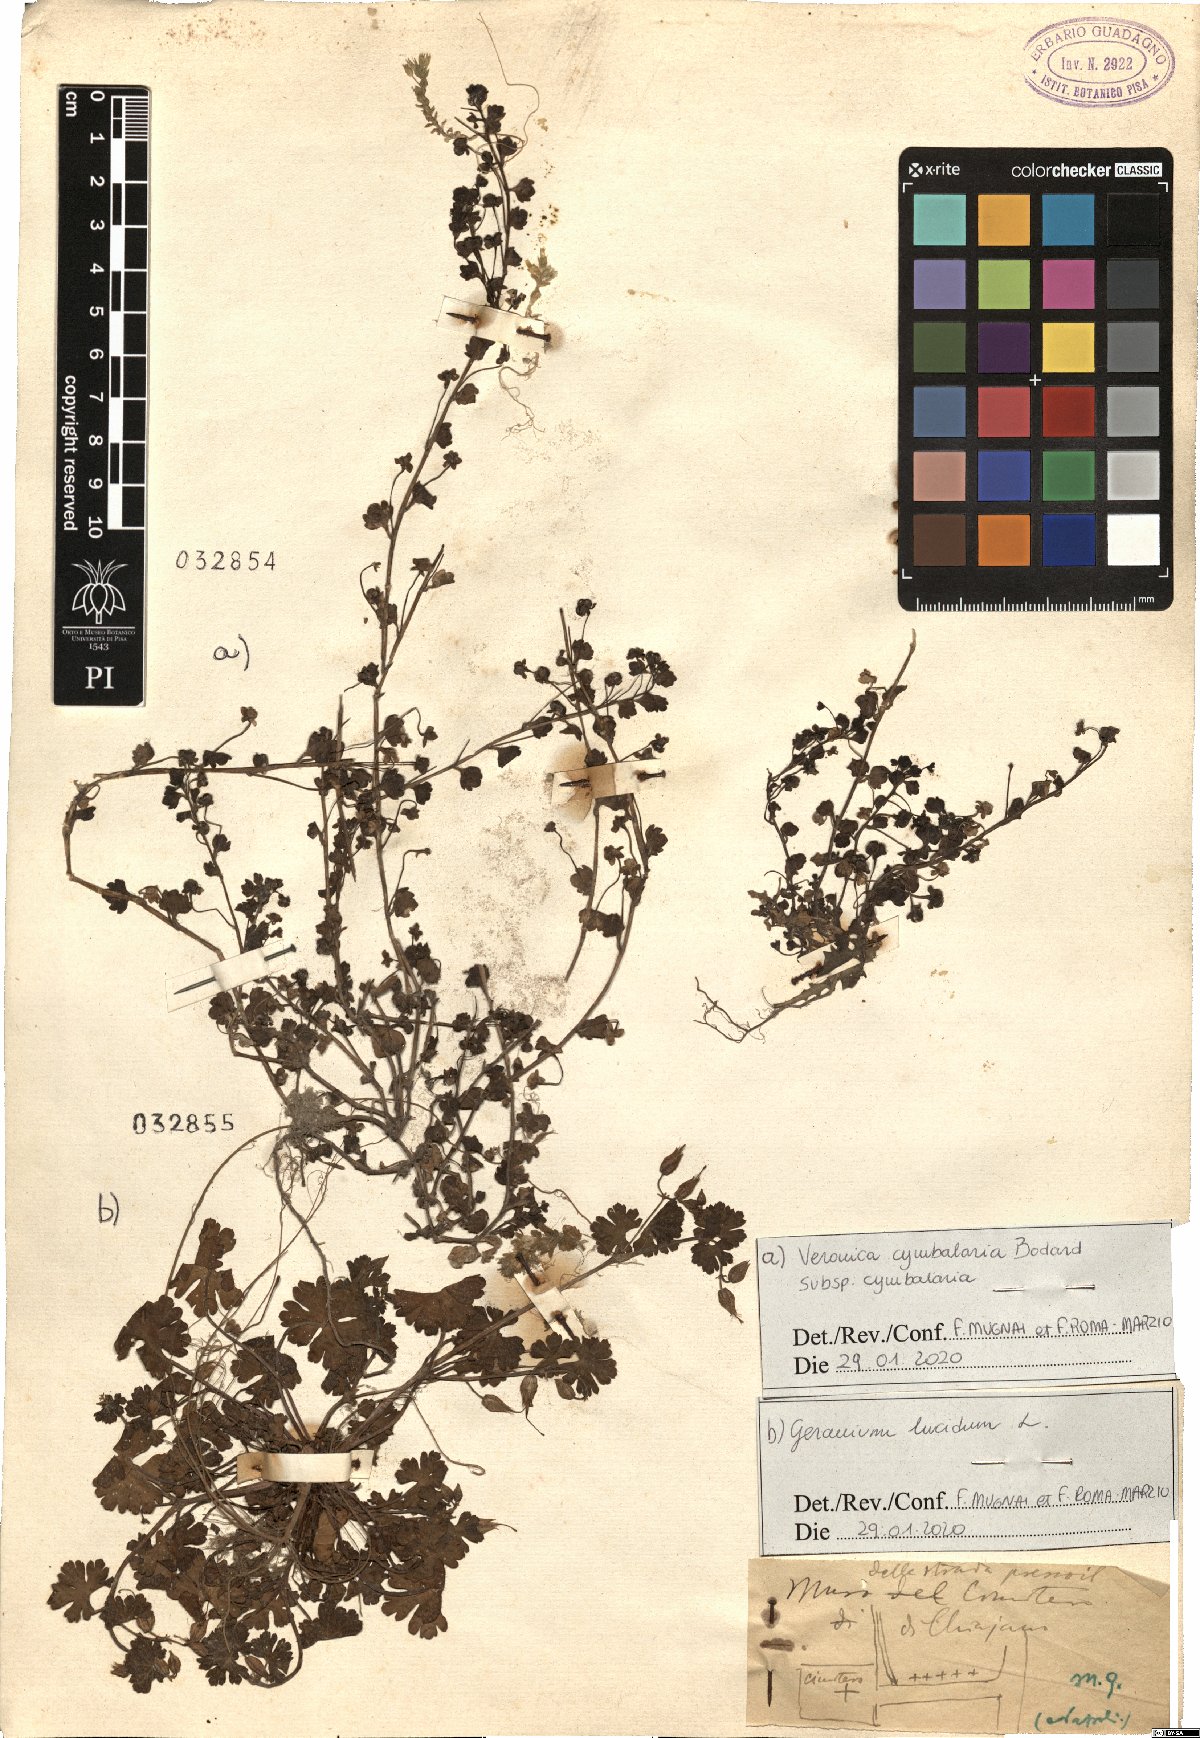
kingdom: Plantae
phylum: Tracheophyta
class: Magnoliopsida
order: Lamiales
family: Plantaginaceae
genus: Veronica
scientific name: Veronica cymbalaria
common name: Pale speedwell
